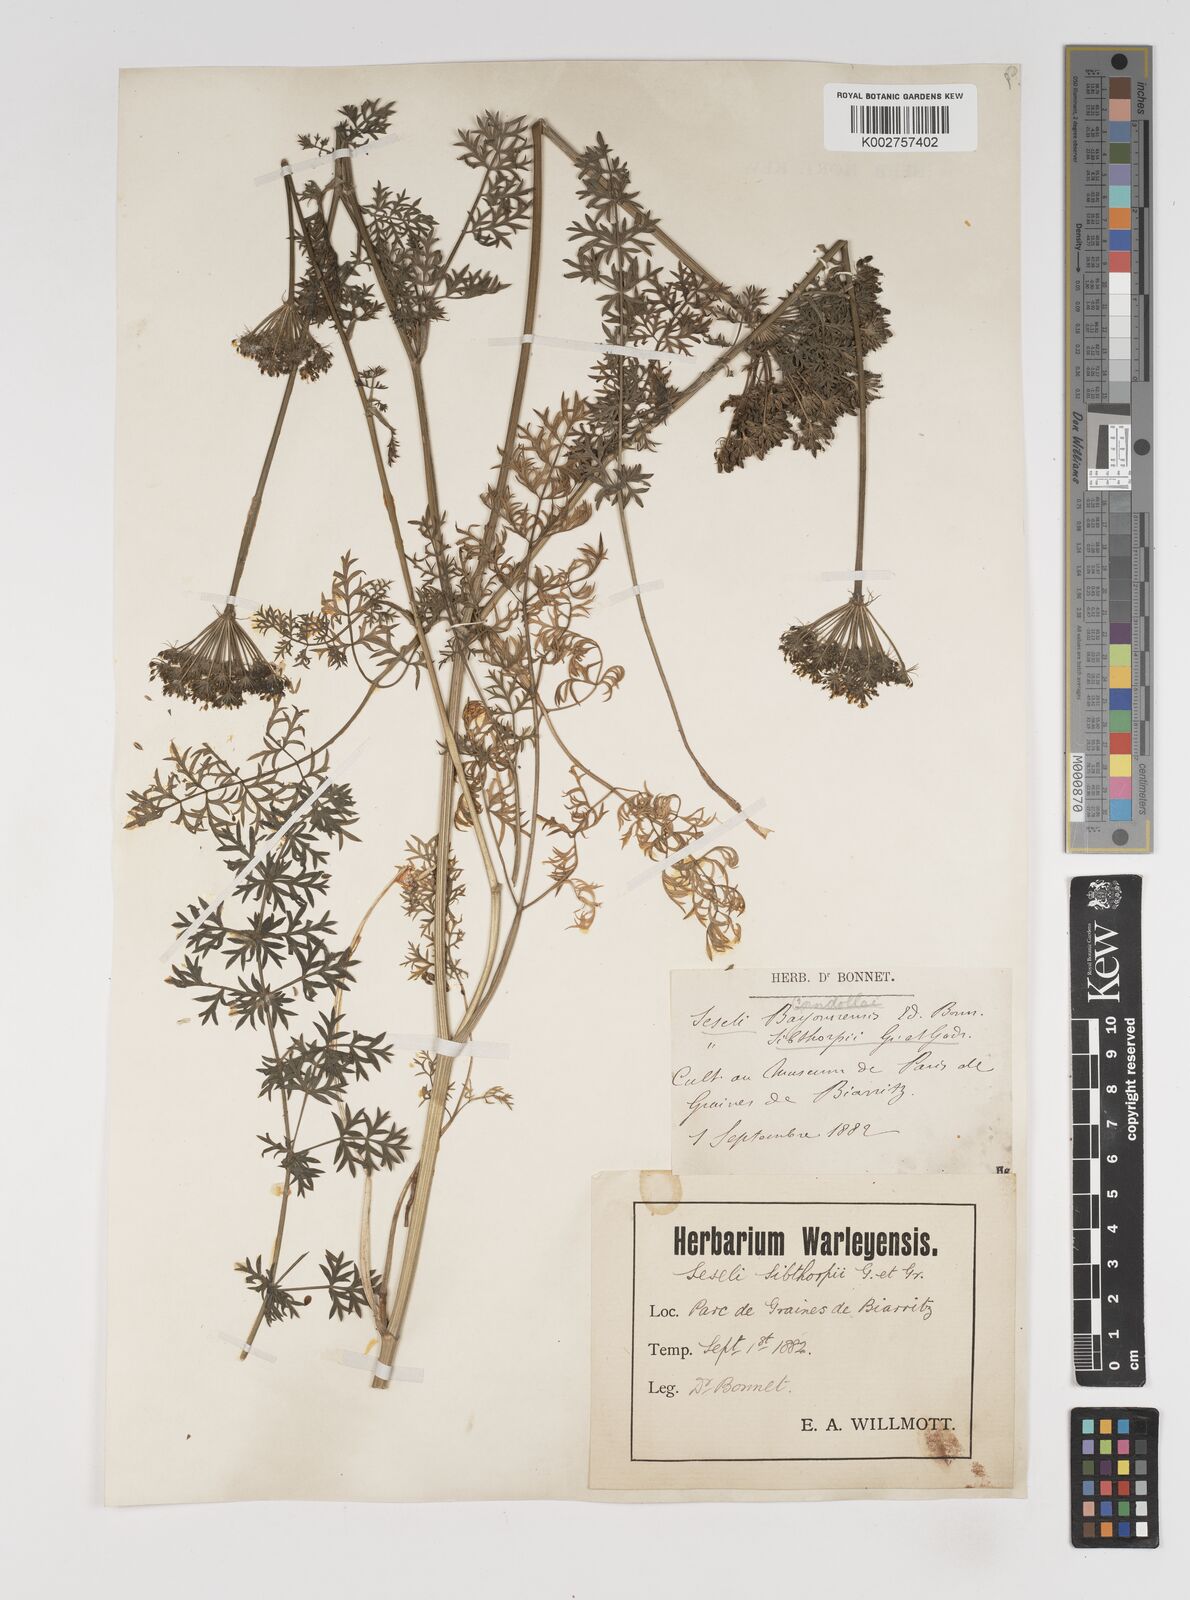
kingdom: Plantae
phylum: Tracheophyta
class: Magnoliopsida
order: Apiales
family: Apiaceae
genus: Seseli
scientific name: Seseli
